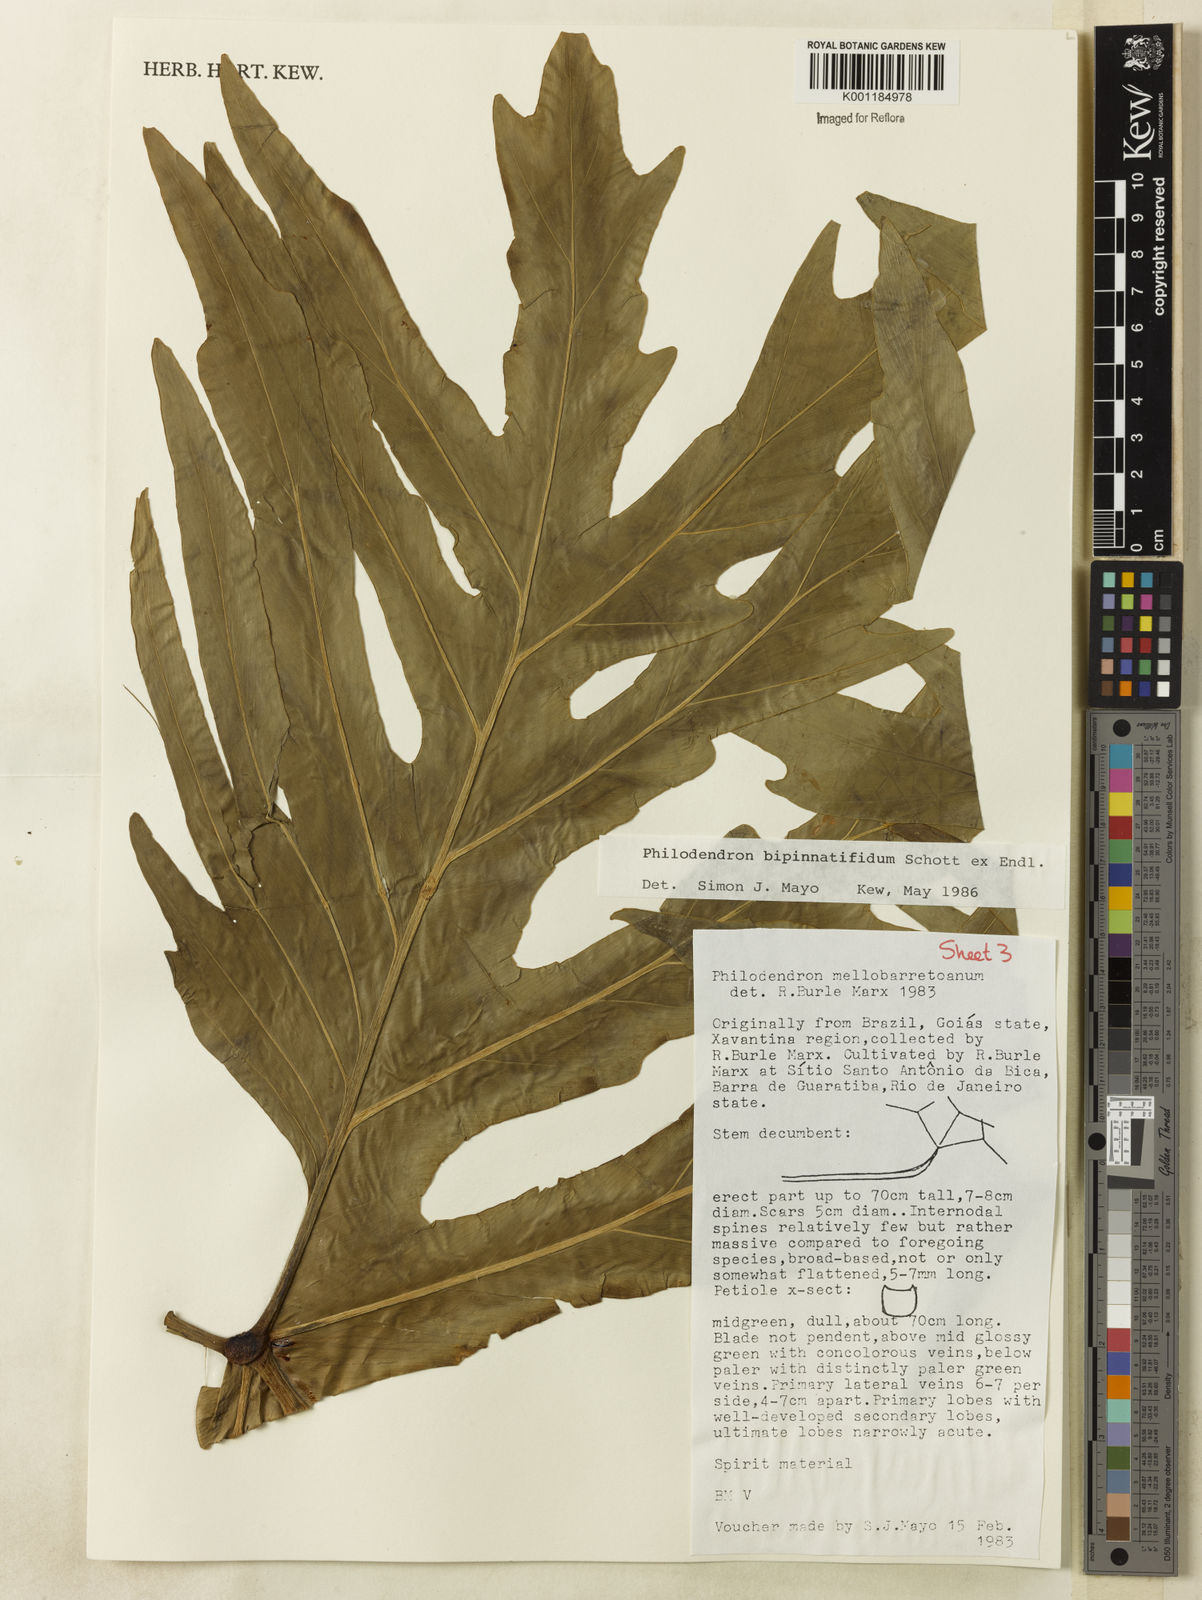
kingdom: Plantae
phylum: Tracheophyta
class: Liliopsida
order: Alismatales
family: Araceae
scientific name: Araceae
